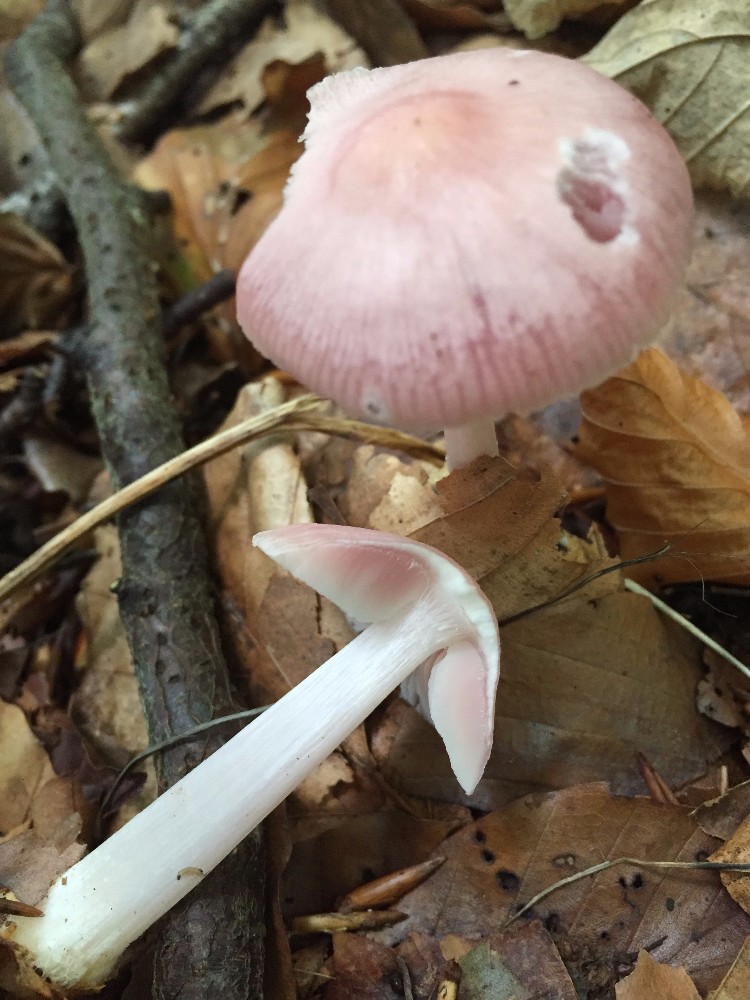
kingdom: Fungi
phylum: Basidiomycota
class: Agaricomycetes
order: Agaricales
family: Mycenaceae
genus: Mycena
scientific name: Mycena rosea
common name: rosa huesvamp
